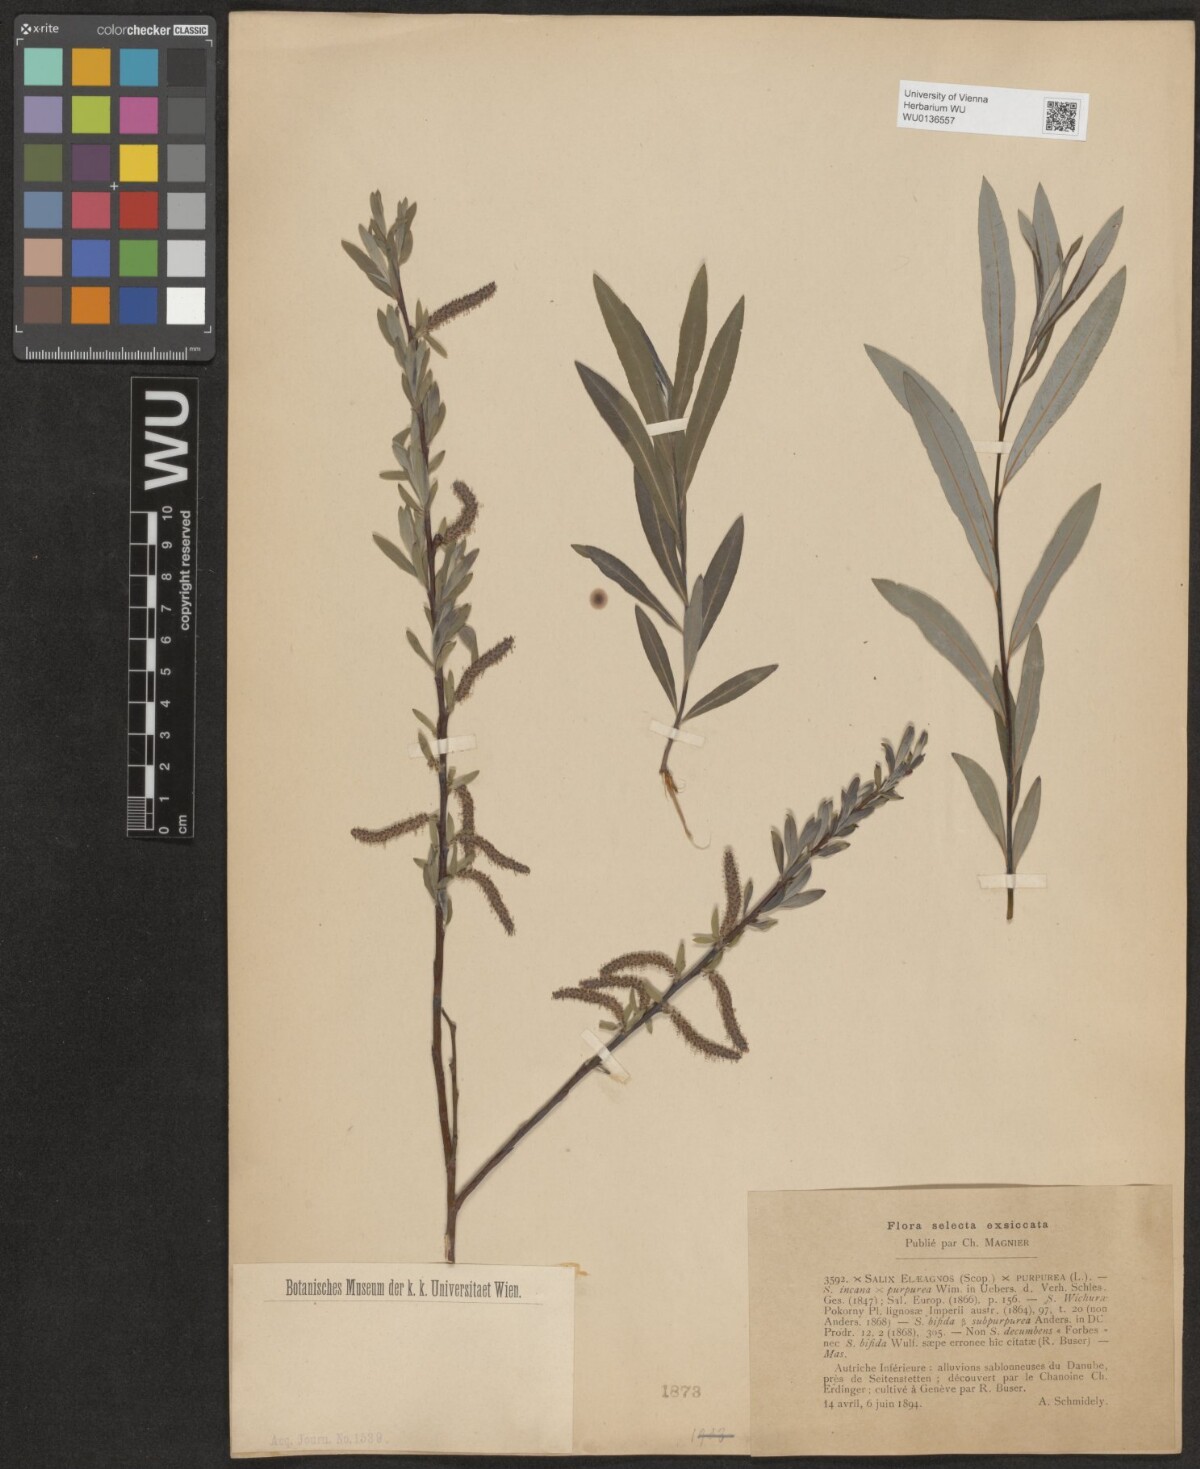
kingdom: Plantae
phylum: Tracheophyta
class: Magnoliopsida
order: Malpighiales
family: Salicaceae
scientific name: Salicaceae
